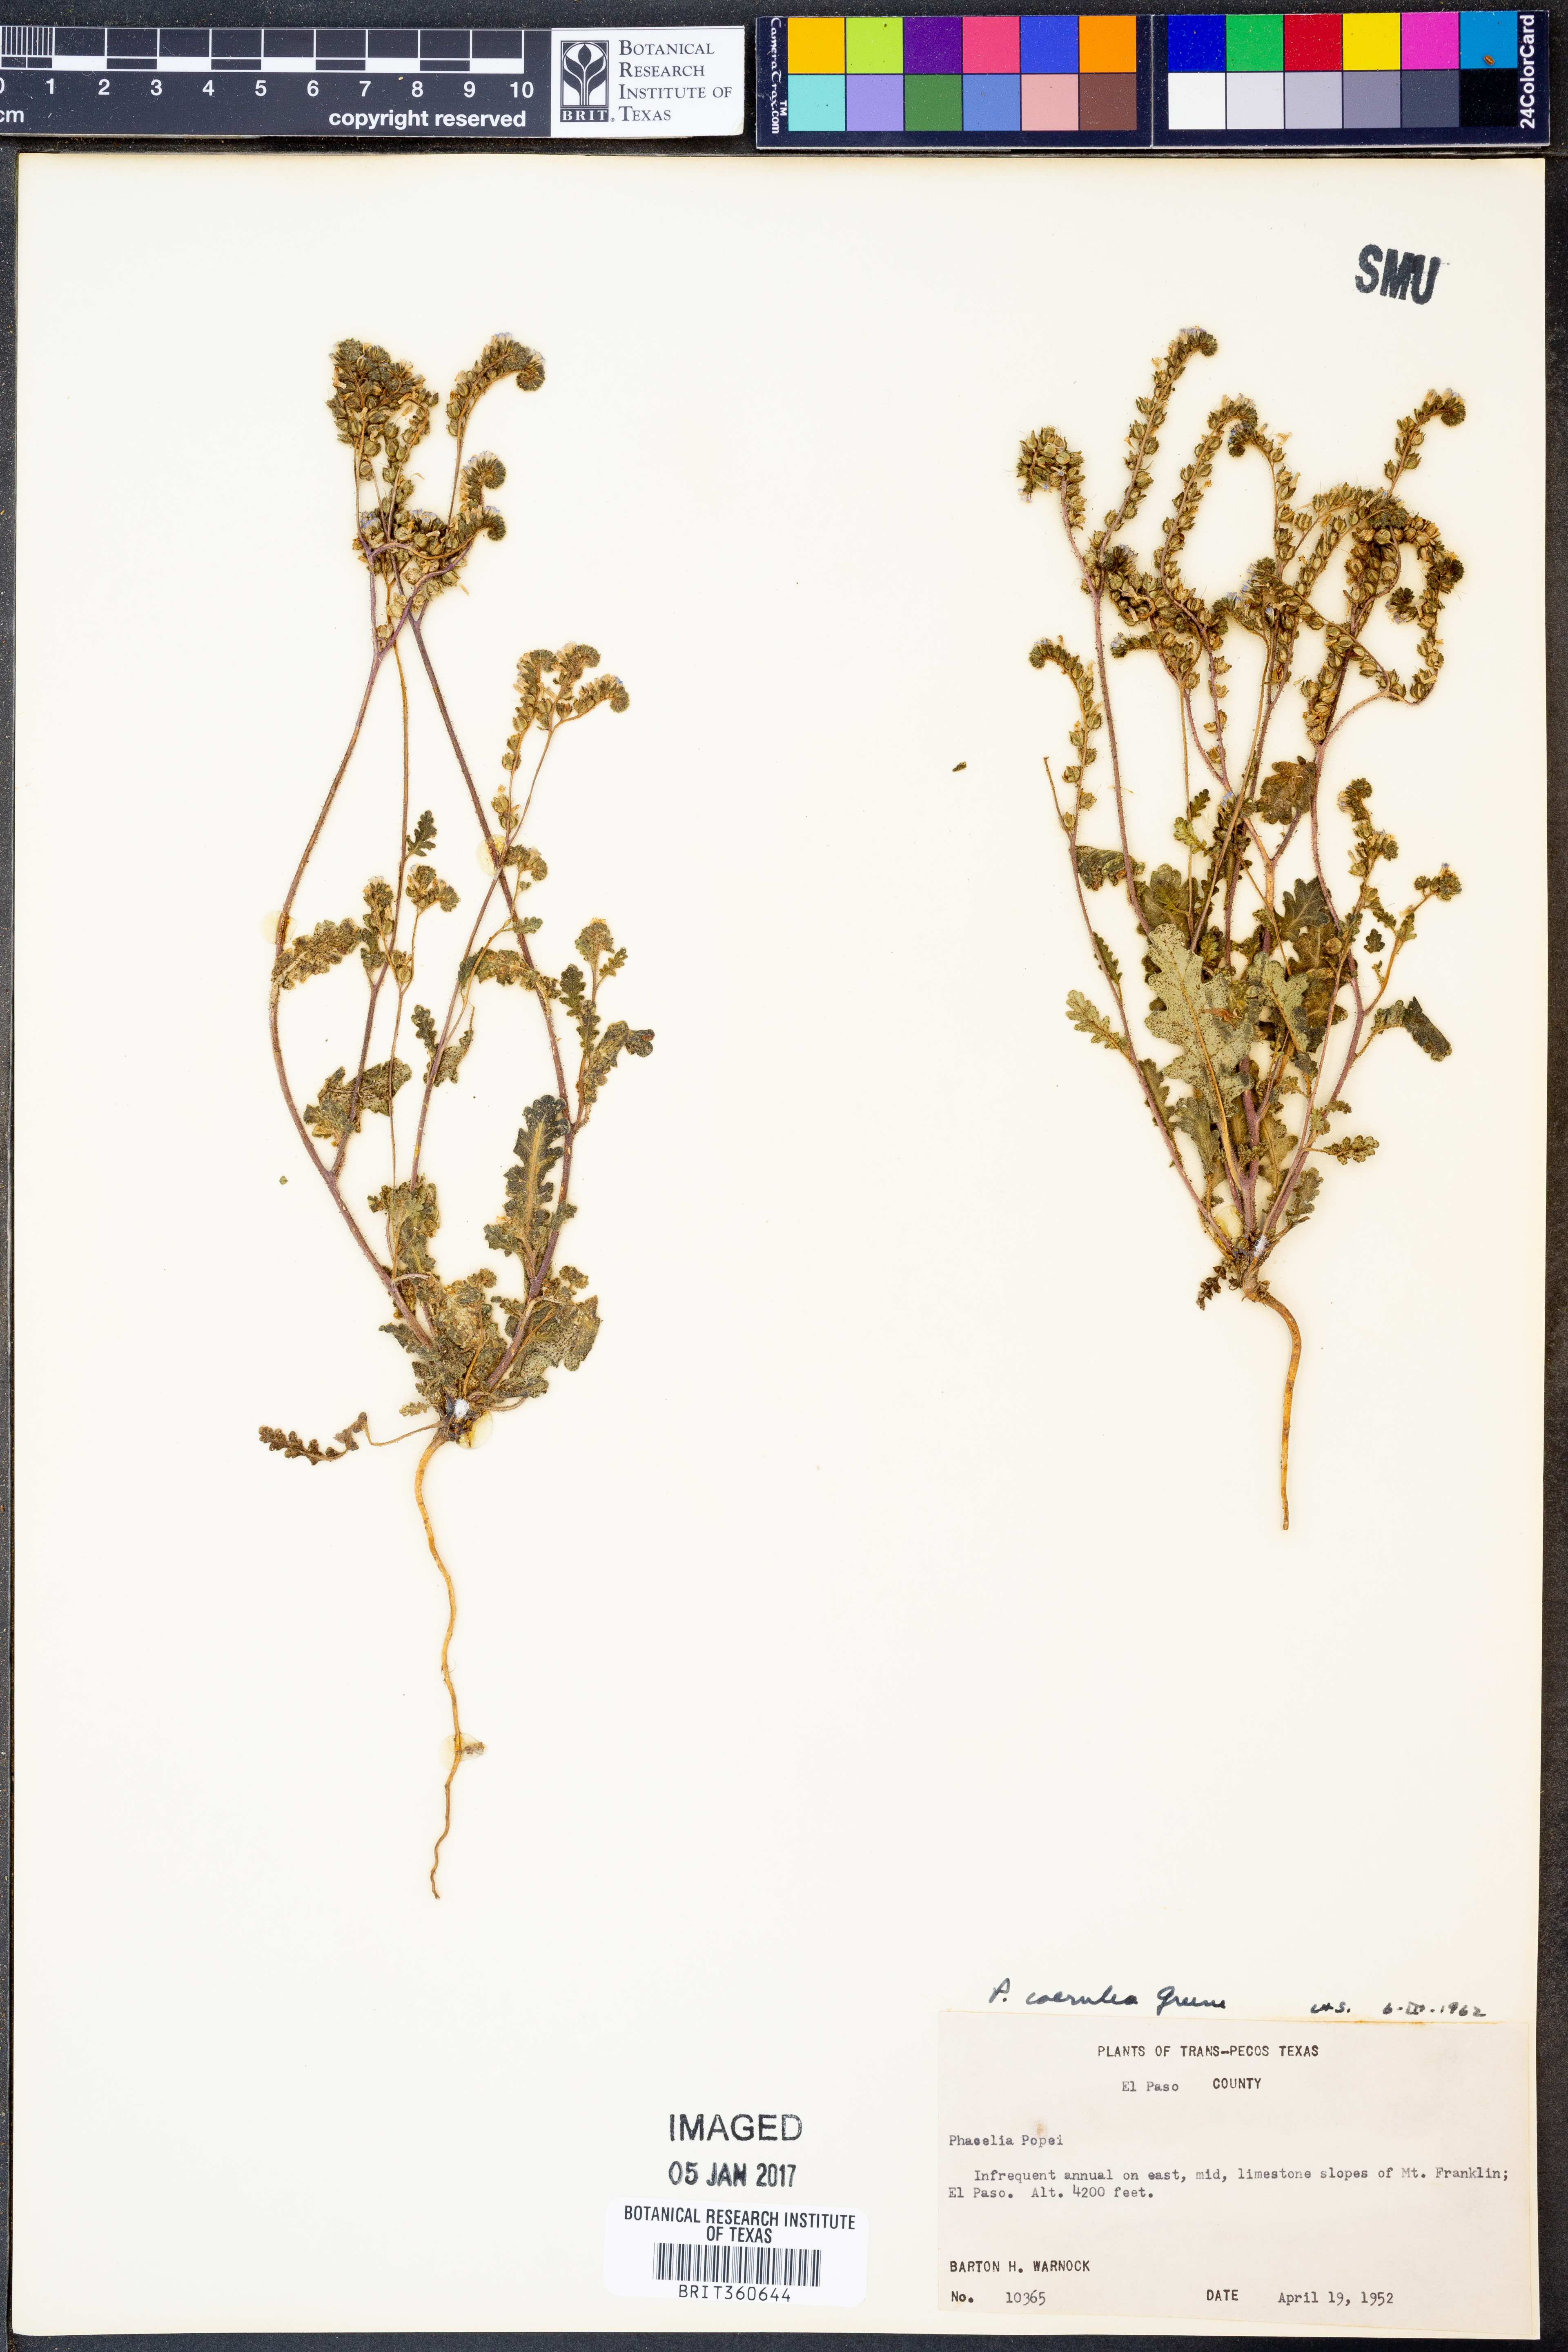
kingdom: Plantae
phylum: Tracheophyta
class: Magnoliopsida
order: Boraginales
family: Hydrophyllaceae
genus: Phacelia
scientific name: Phacelia coerulea
